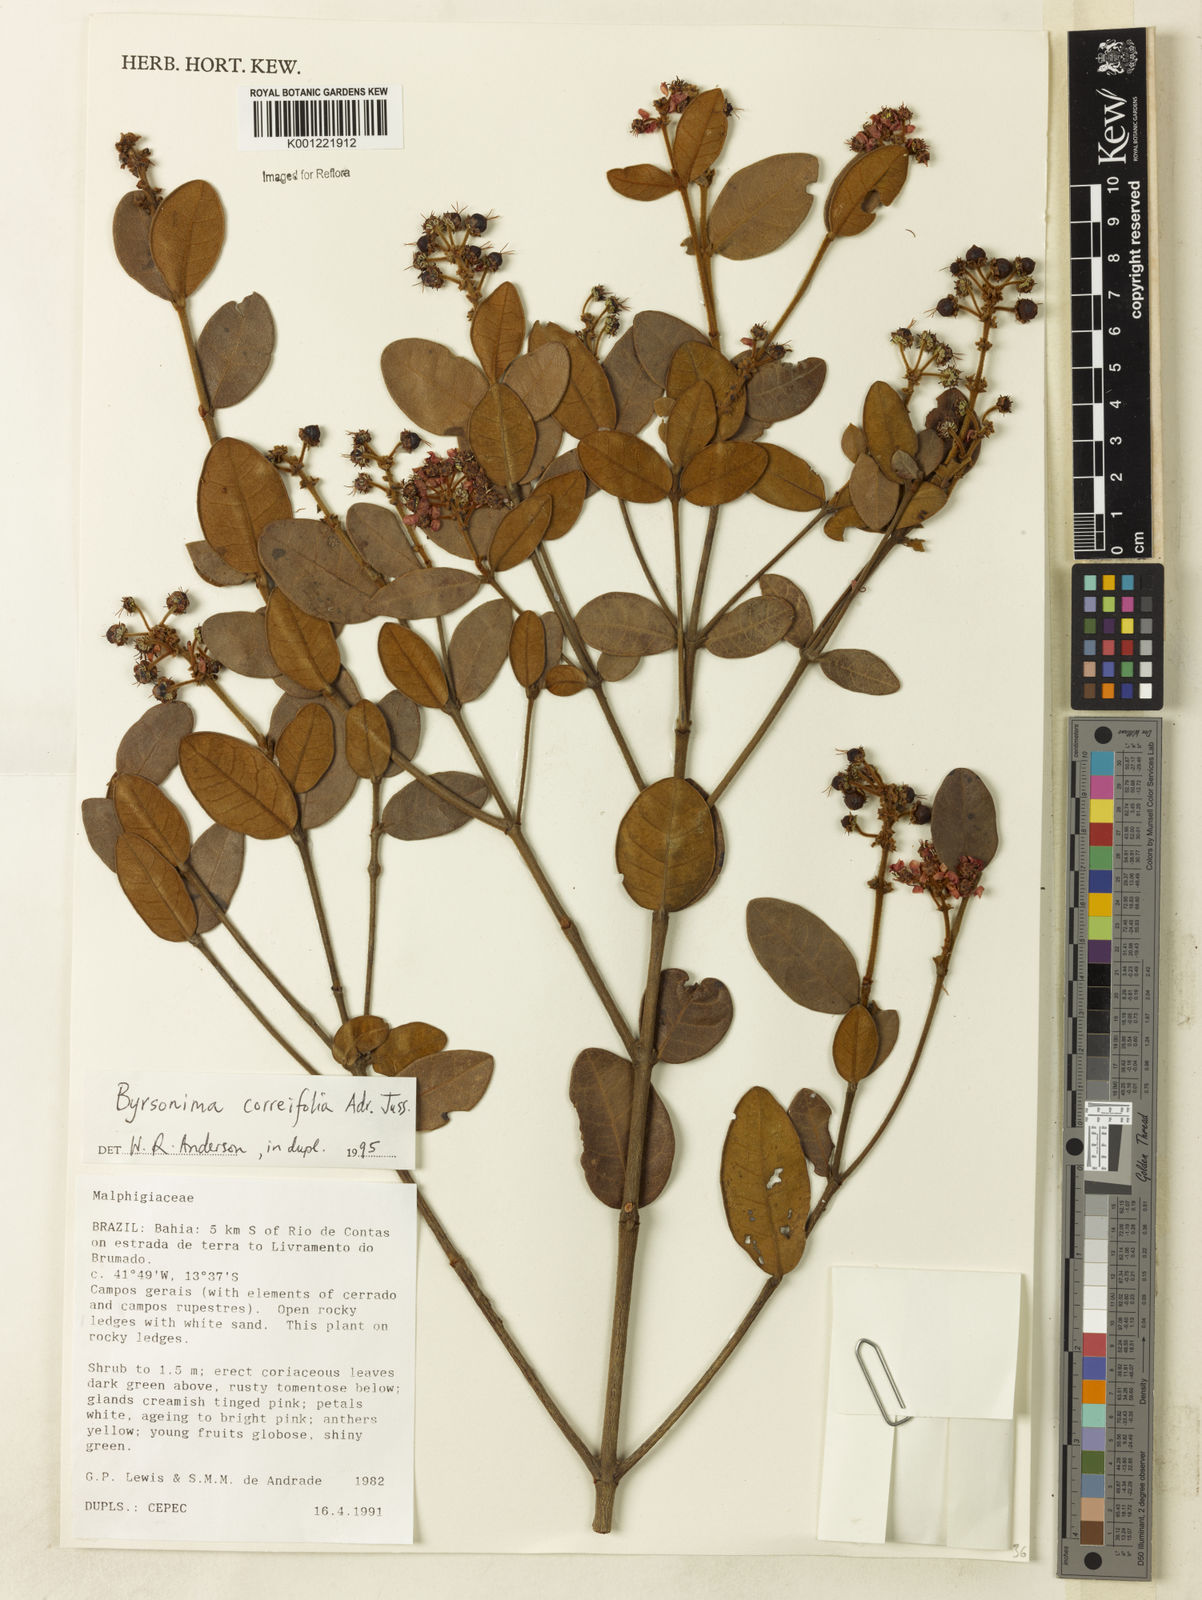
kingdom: Plantae
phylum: Tracheophyta
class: Magnoliopsida
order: Malpighiales
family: Malpighiaceae
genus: Byrsonima
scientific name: Byrsonima correifolia
